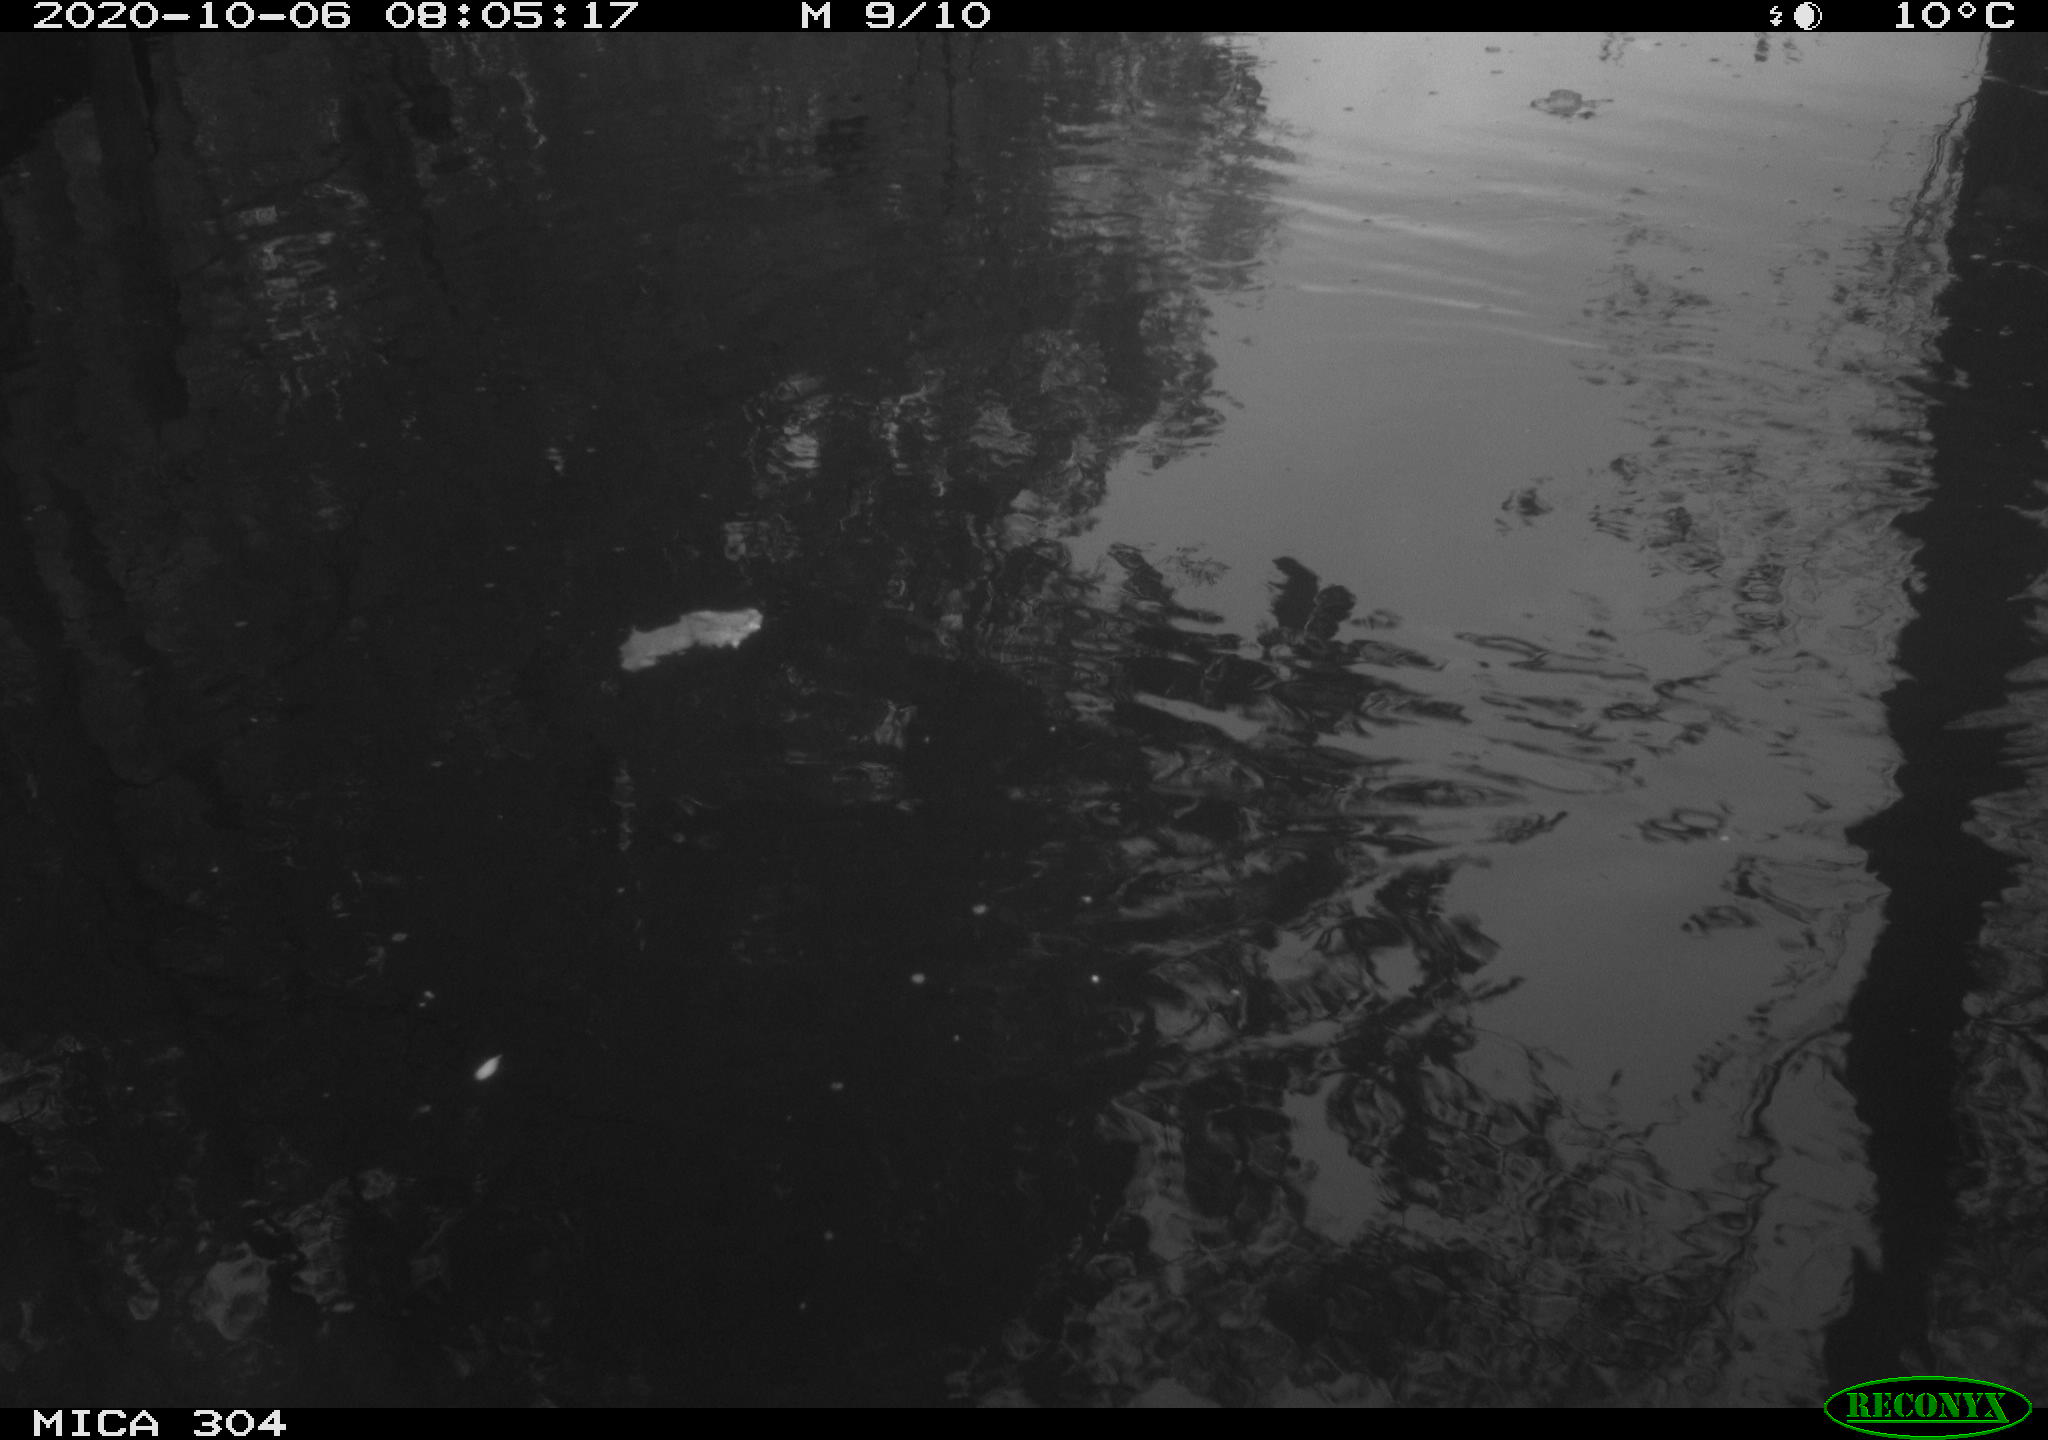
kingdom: Animalia
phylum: Chordata
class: Aves
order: Gruiformes
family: Rallidae
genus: Gallinula
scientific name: Gallinula chloropus
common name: Common moorhen
